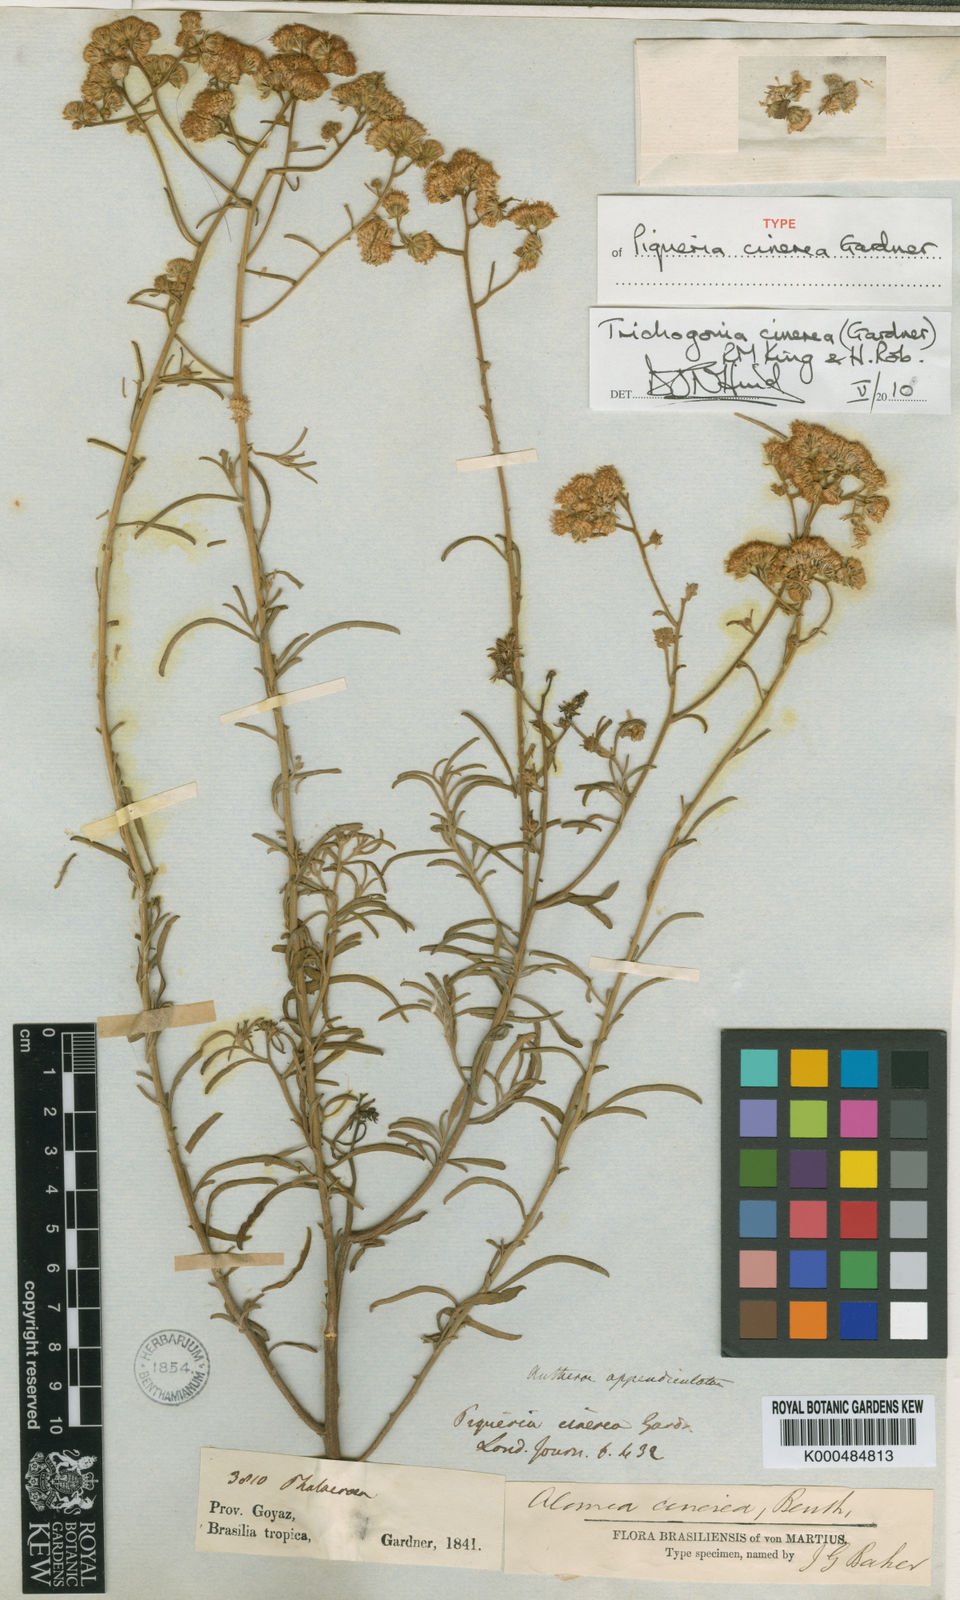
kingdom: Plantae
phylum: Tracheophyta
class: Magnoliopsida
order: Asterales
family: Asteraceae
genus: Trichogonia
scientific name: Trichogonia cinerea
